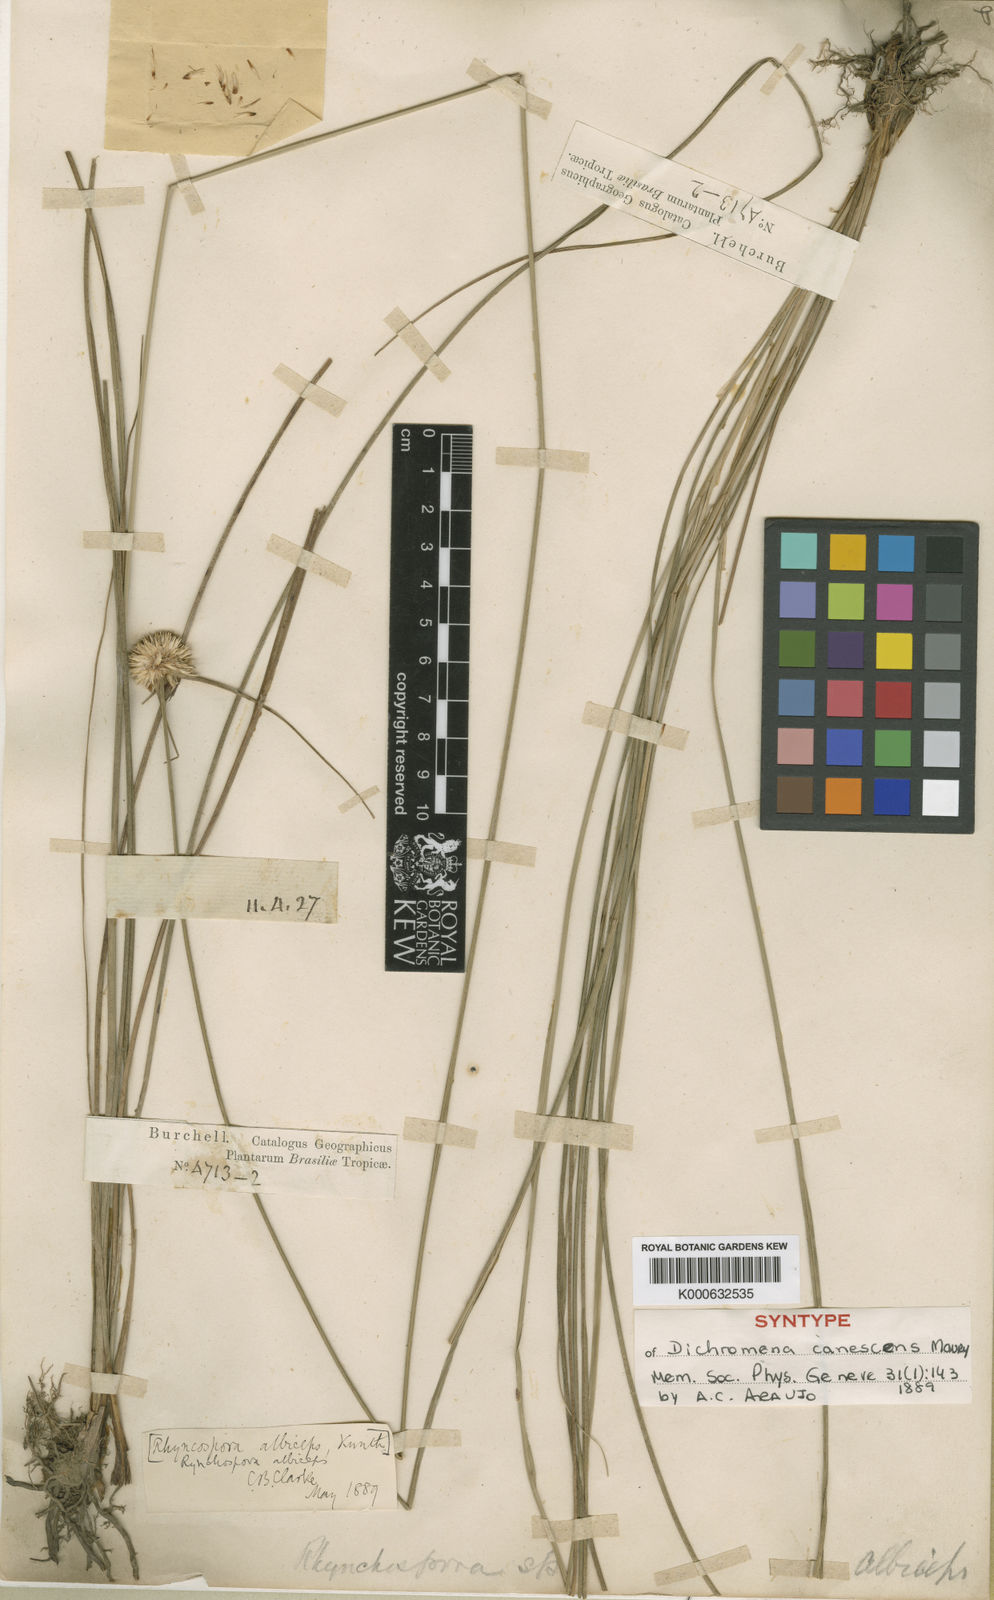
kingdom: Plantae
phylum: Tracheophyta
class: Liliopsida
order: Poales
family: Cyperaceae
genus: Rhynchospora
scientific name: Rhynchospora albiceps
